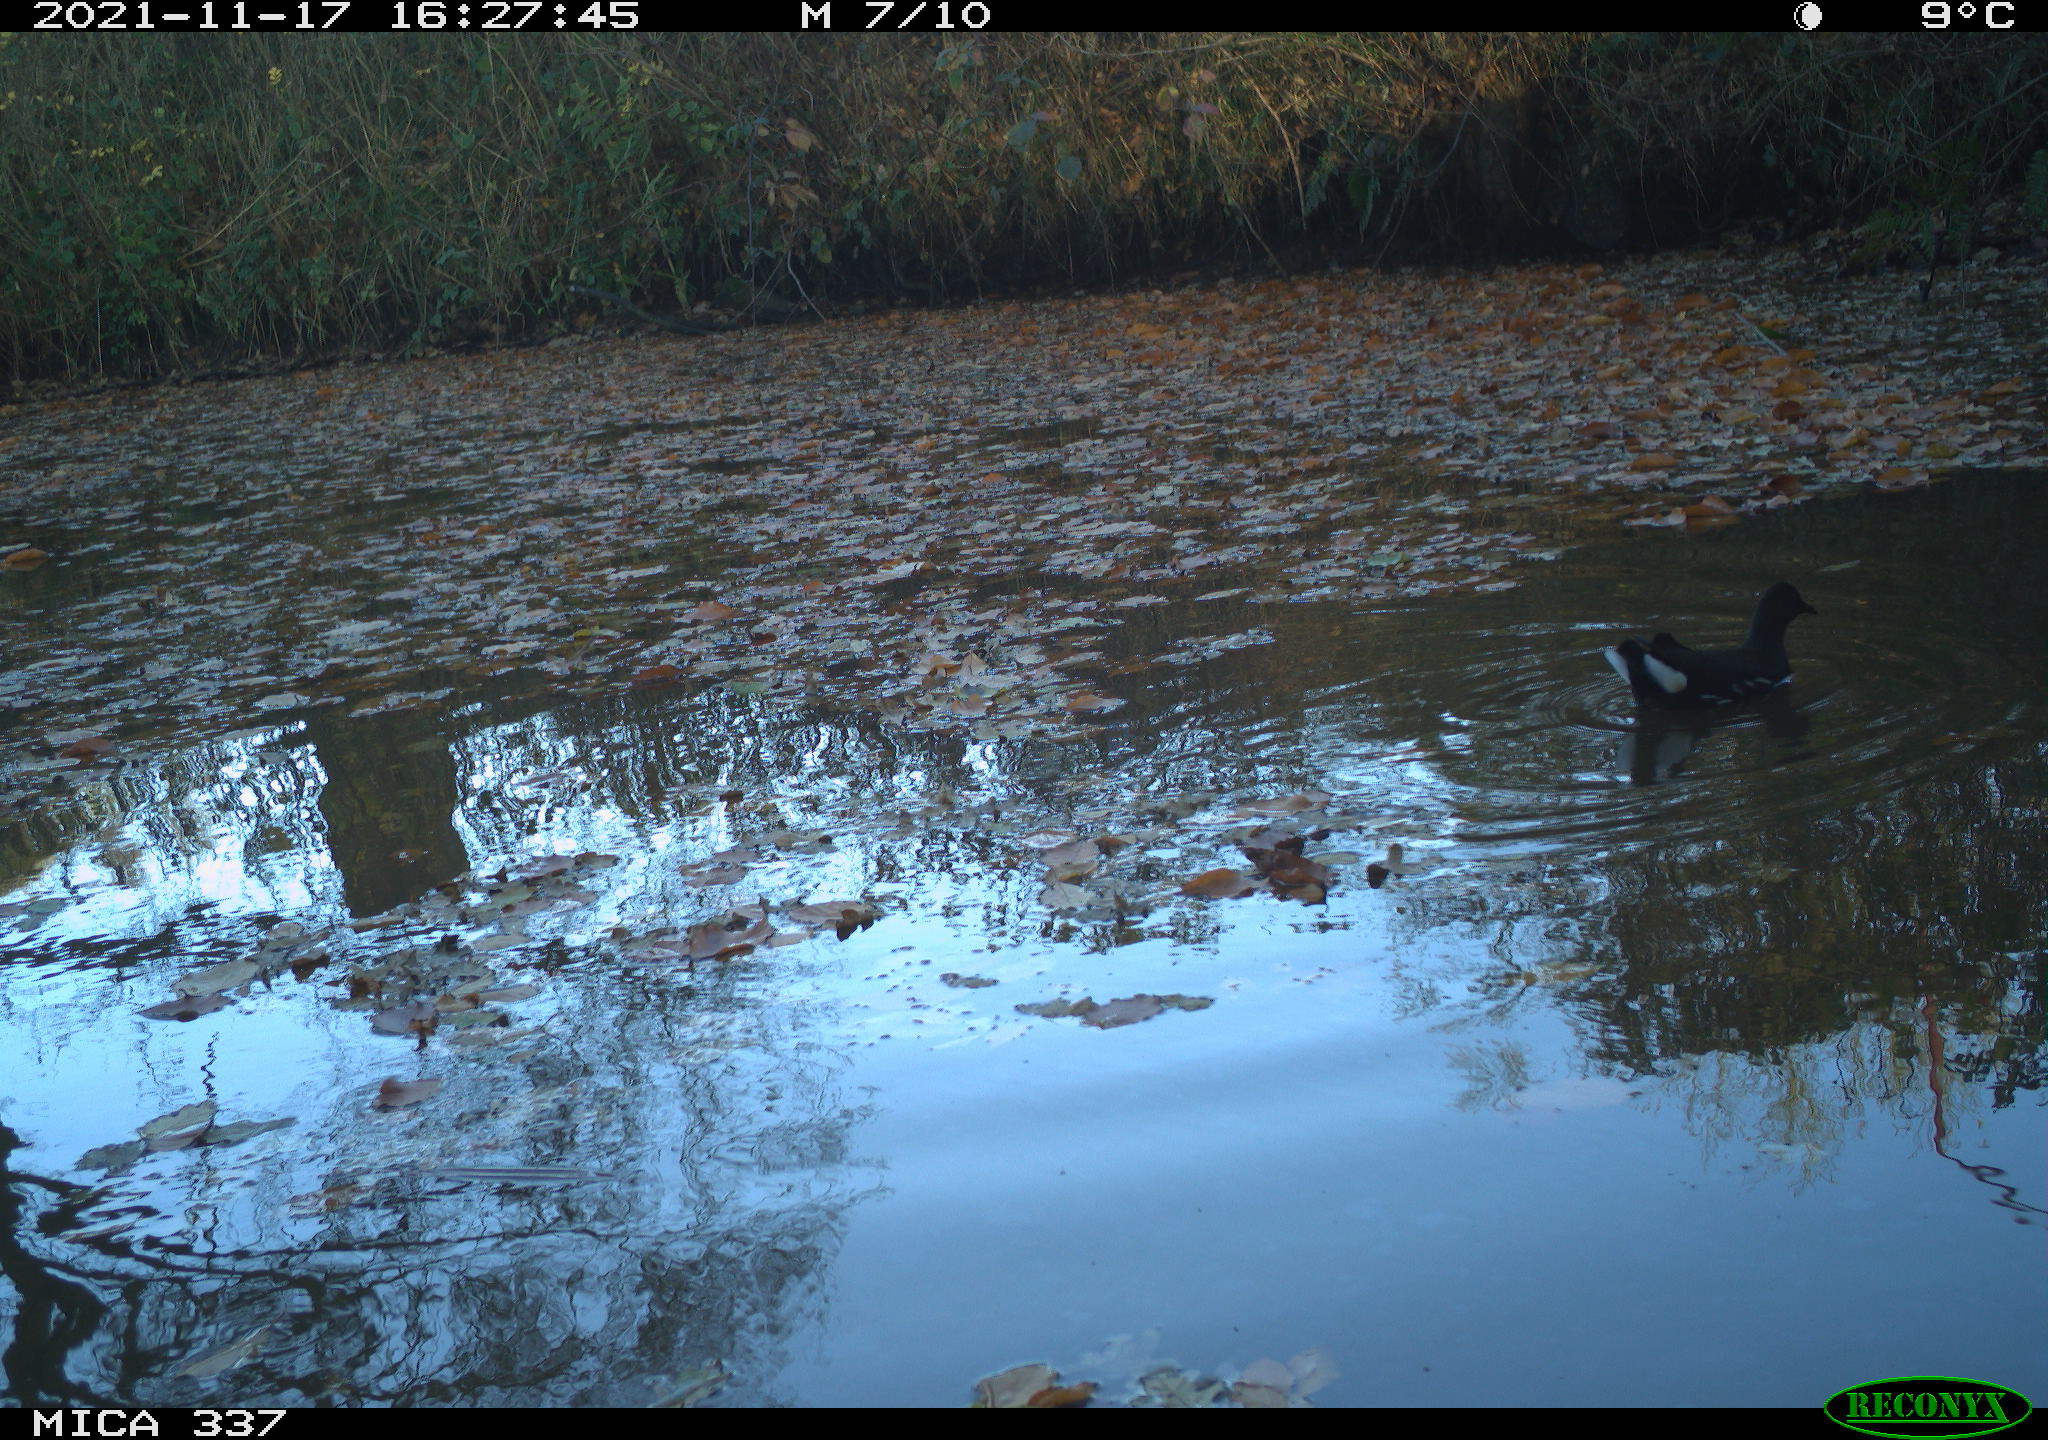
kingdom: Animalia
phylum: Chordata
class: Aves
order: Gruiformes
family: Rallidae
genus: Gallinula
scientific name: Gallinula chloropus
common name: Common moorhen
